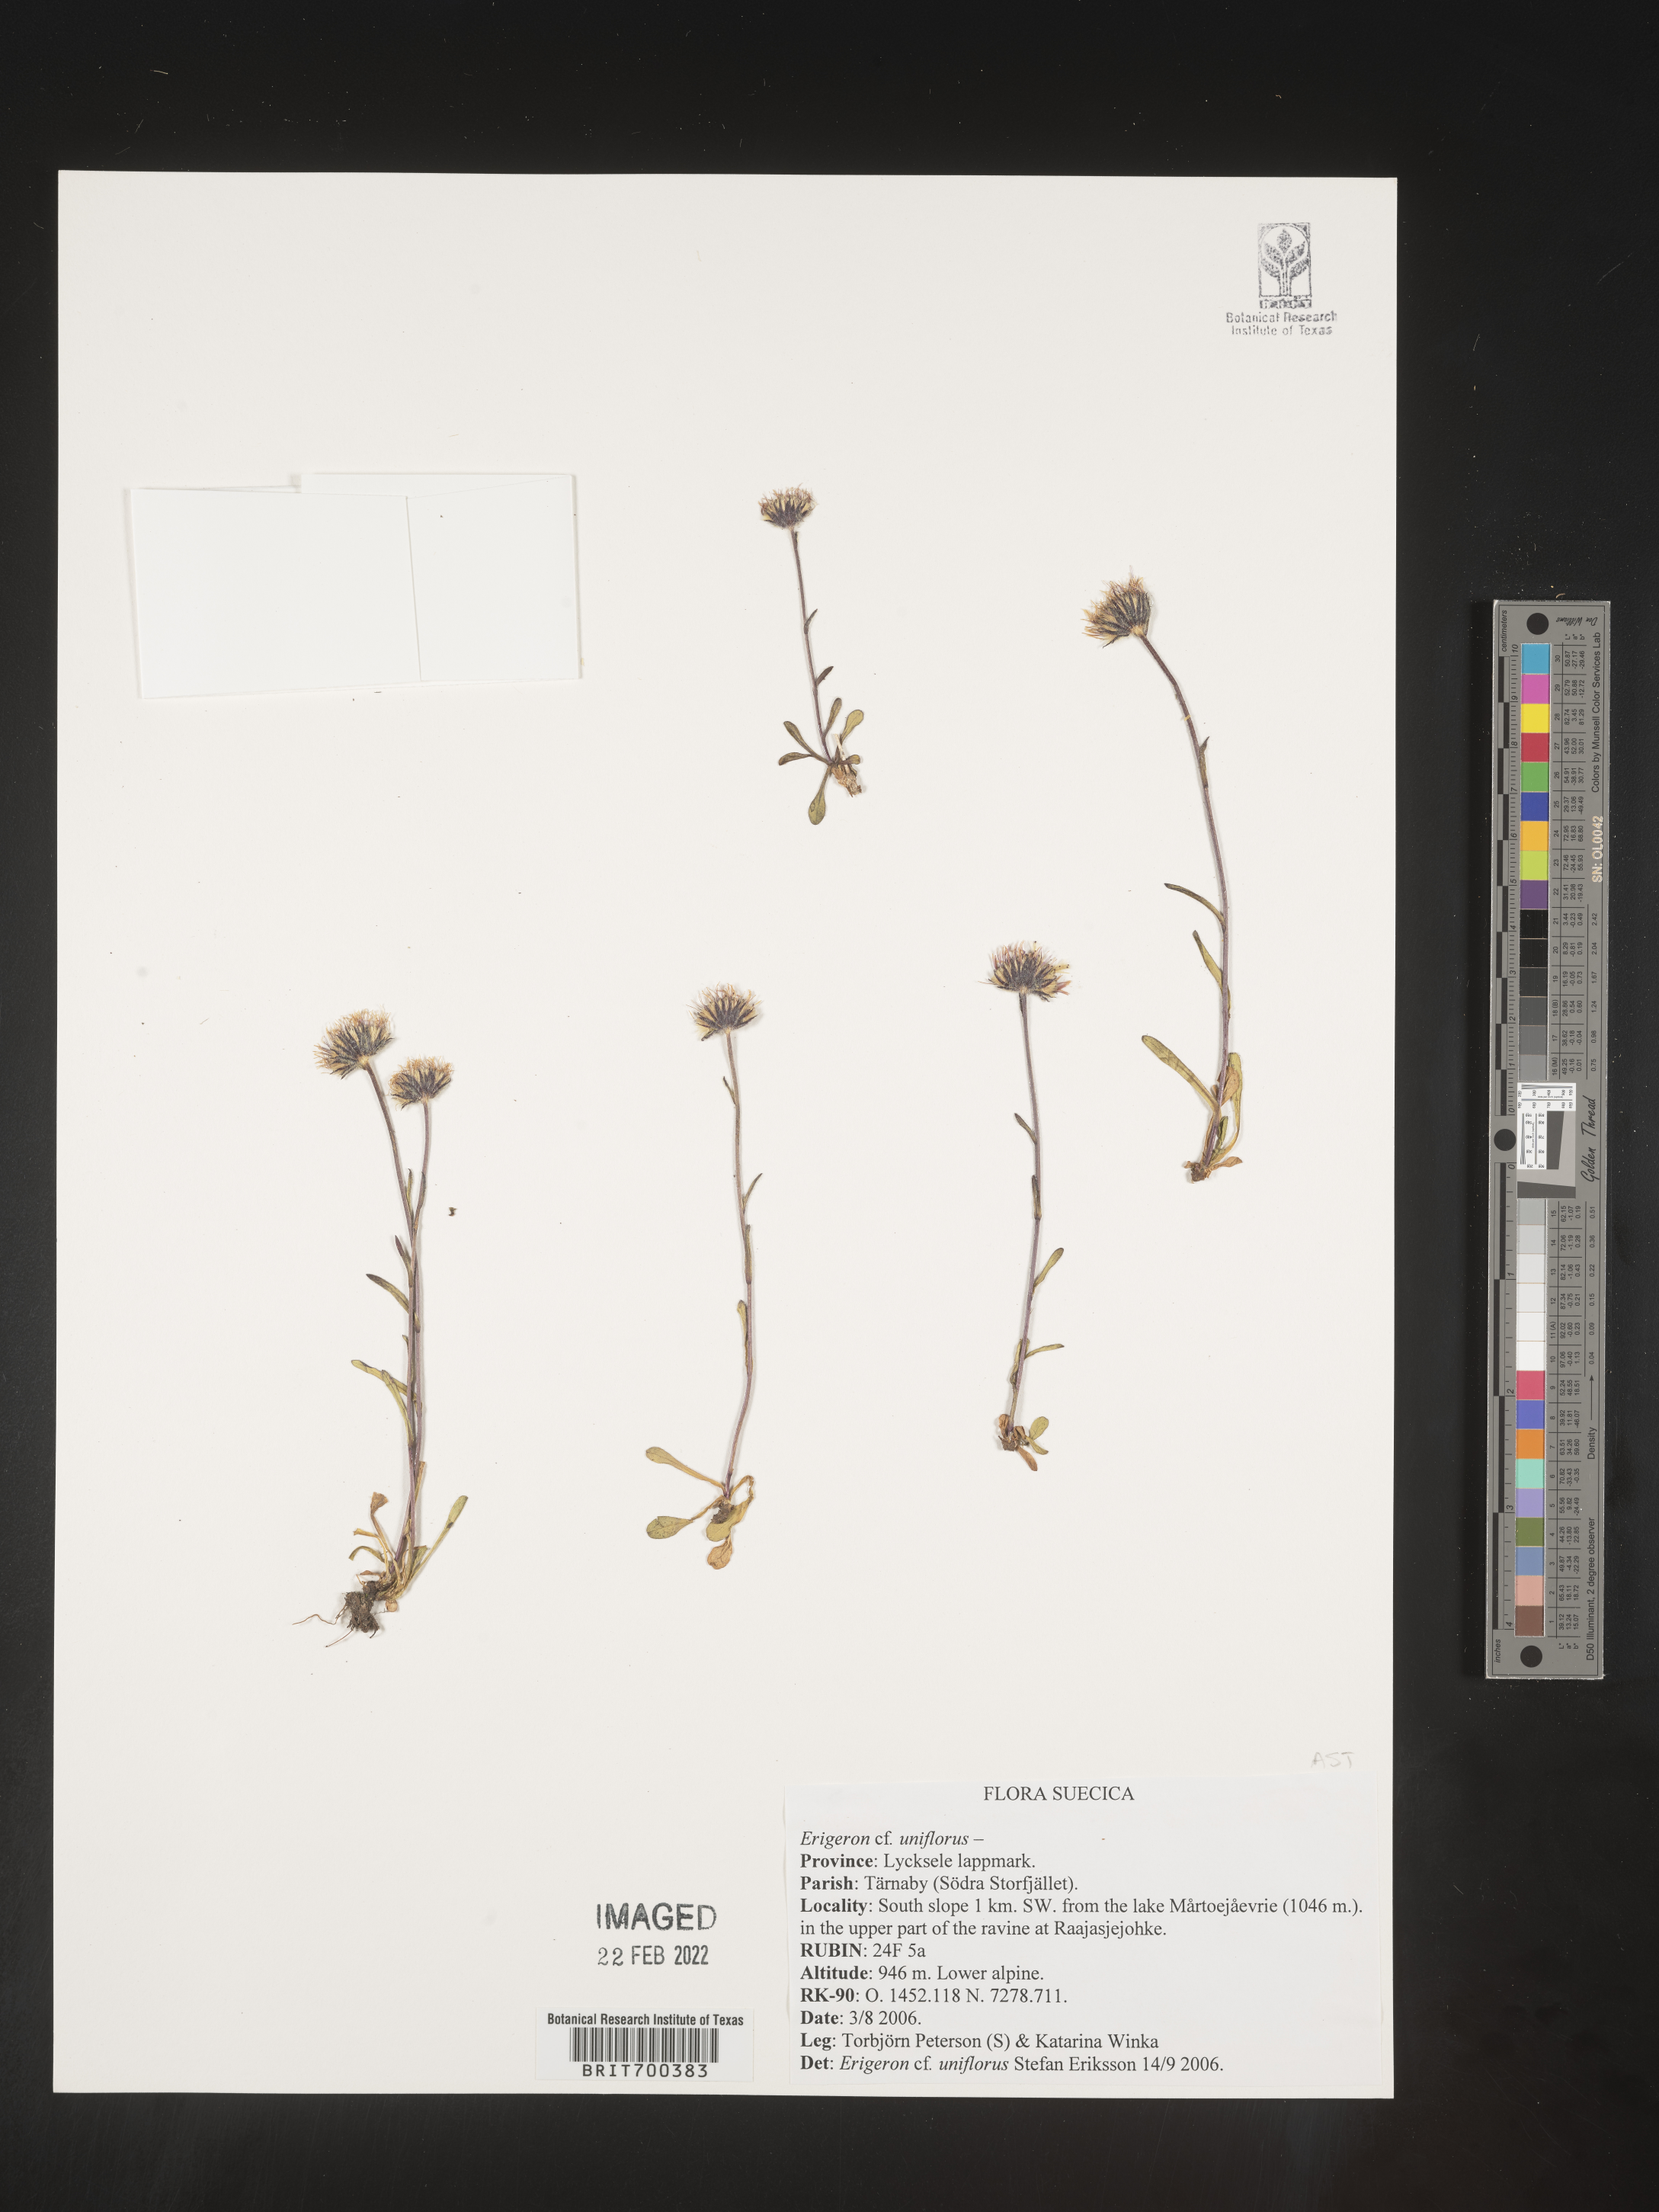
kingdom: Plantae
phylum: Tracheophyta
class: Magnoliopsida
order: Asterales
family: Asteraceae
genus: Erigeron
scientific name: Erigeron
